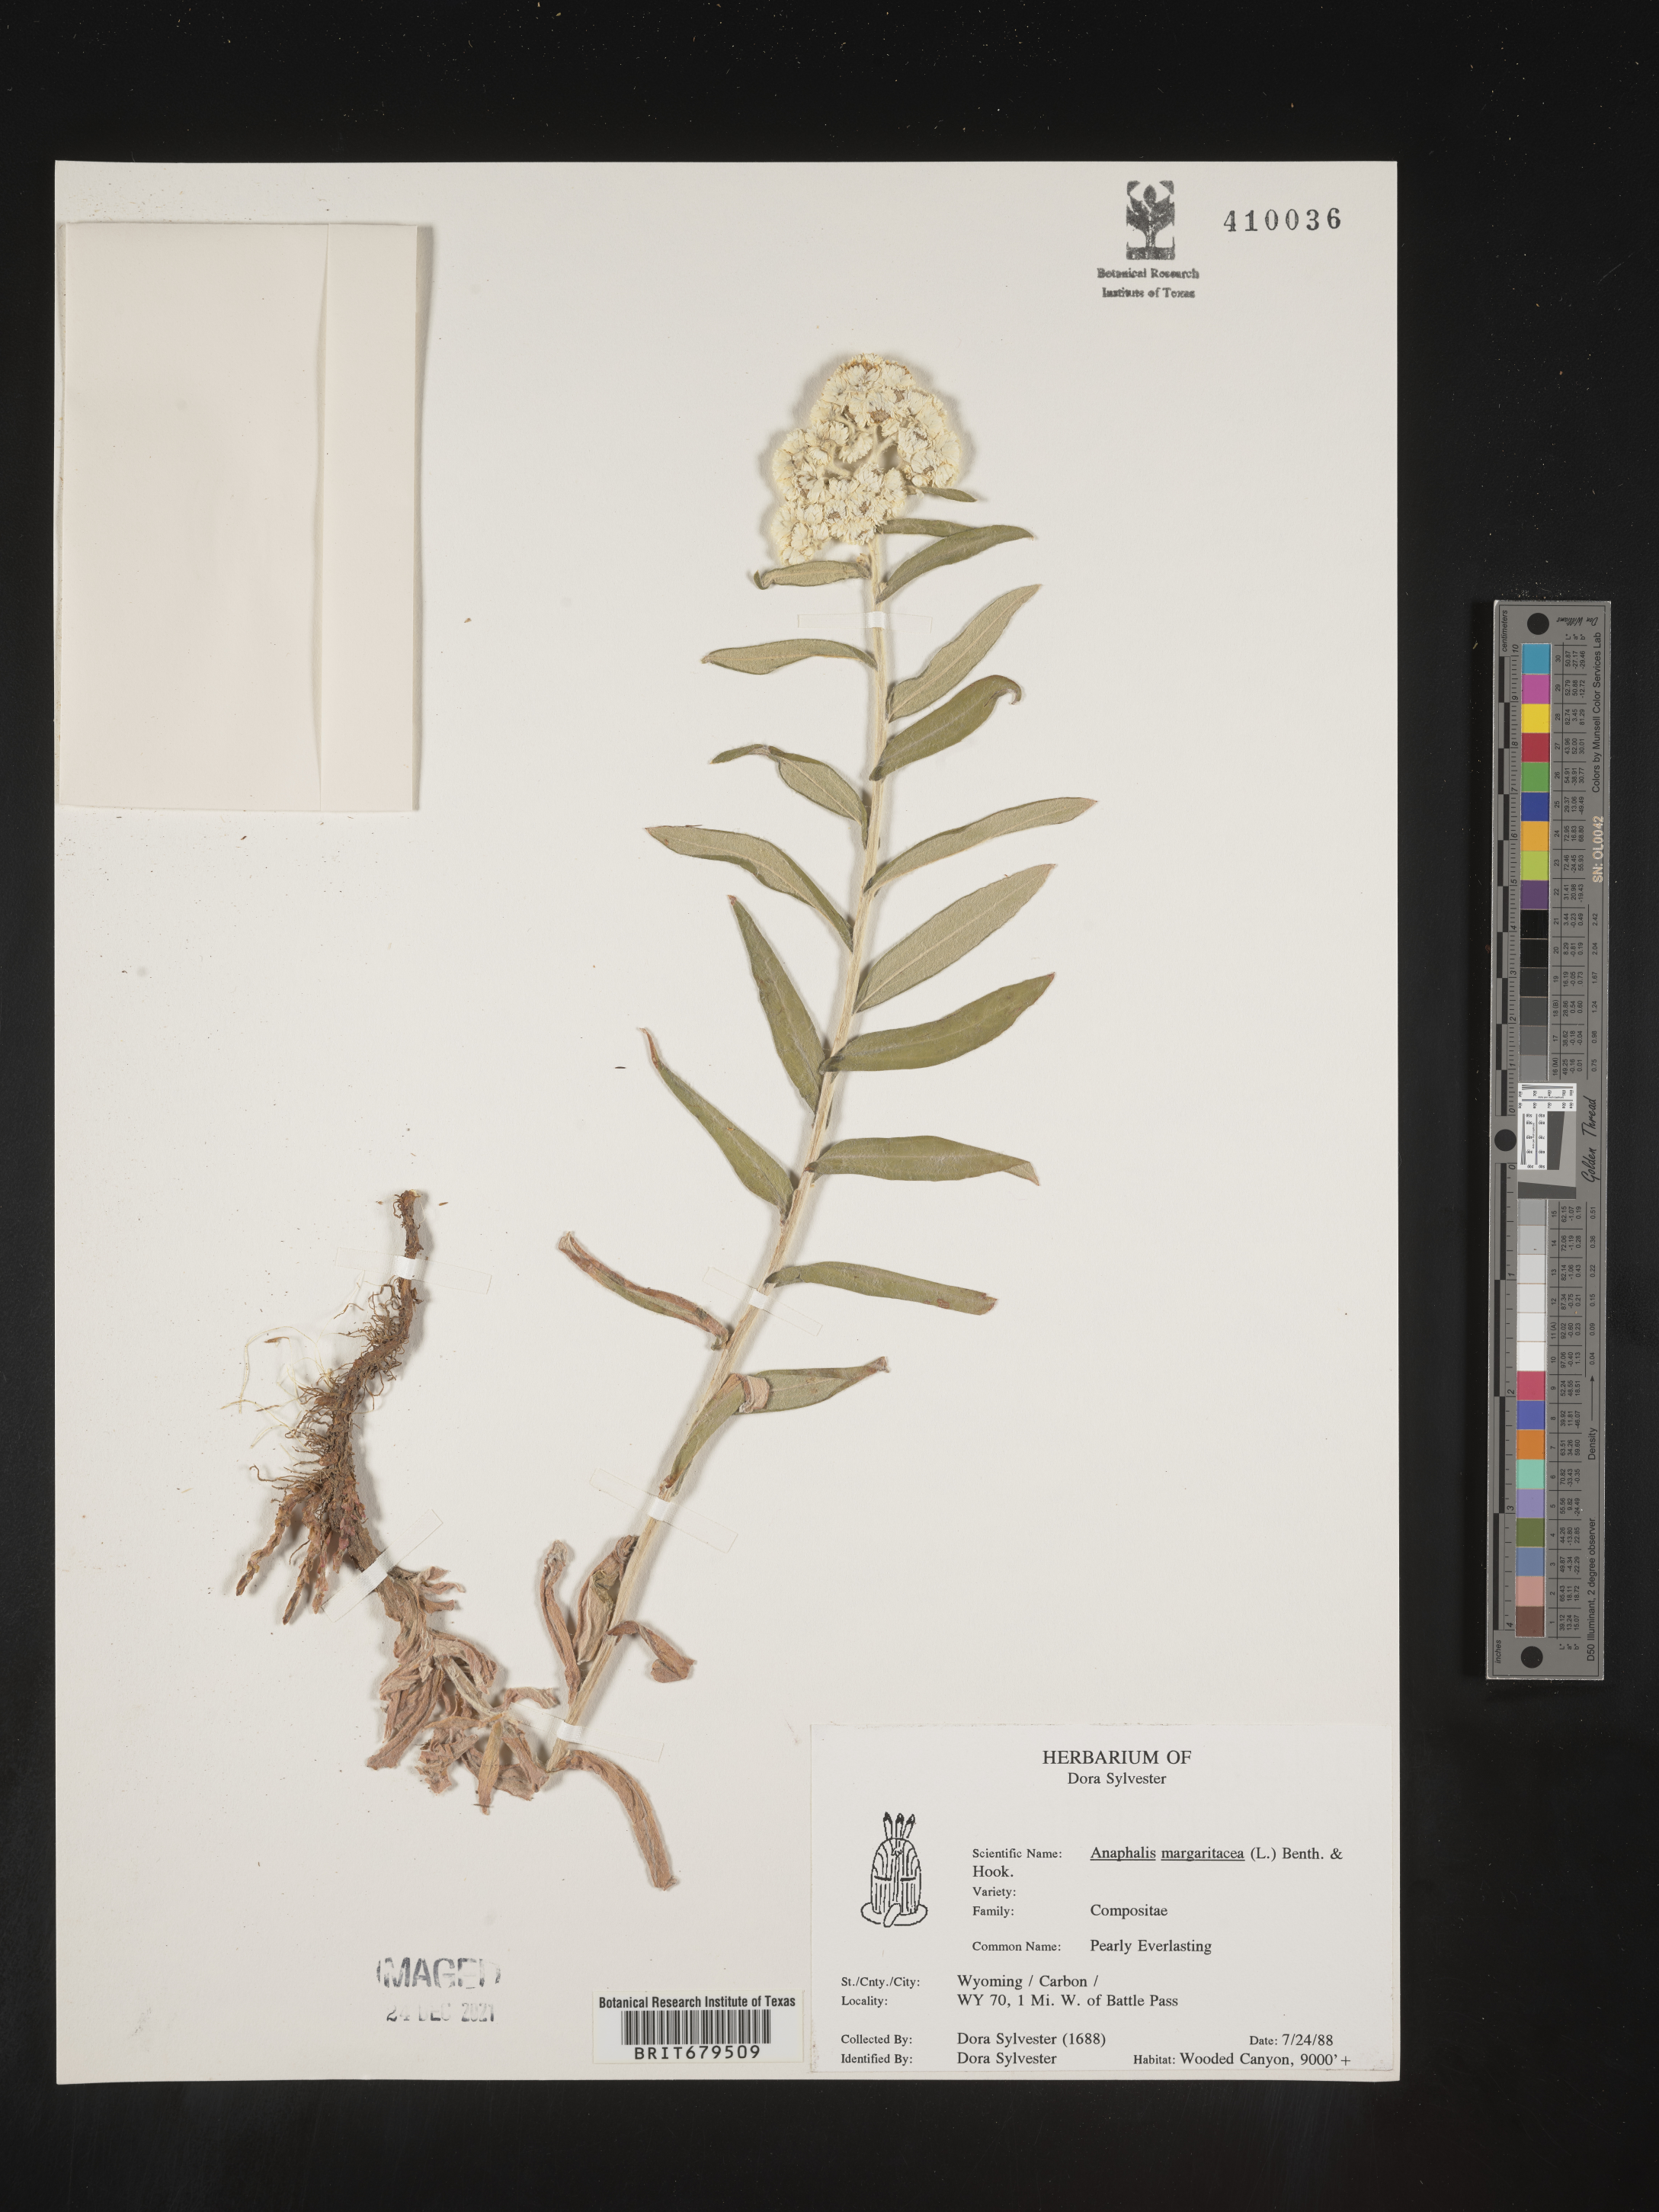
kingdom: Plantae
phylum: Tracheophyta
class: Magnoliopsida
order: Asterales
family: Asteraceae
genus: Anaphalis
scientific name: Anaphalis margaritacea
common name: Pearly everlasting
